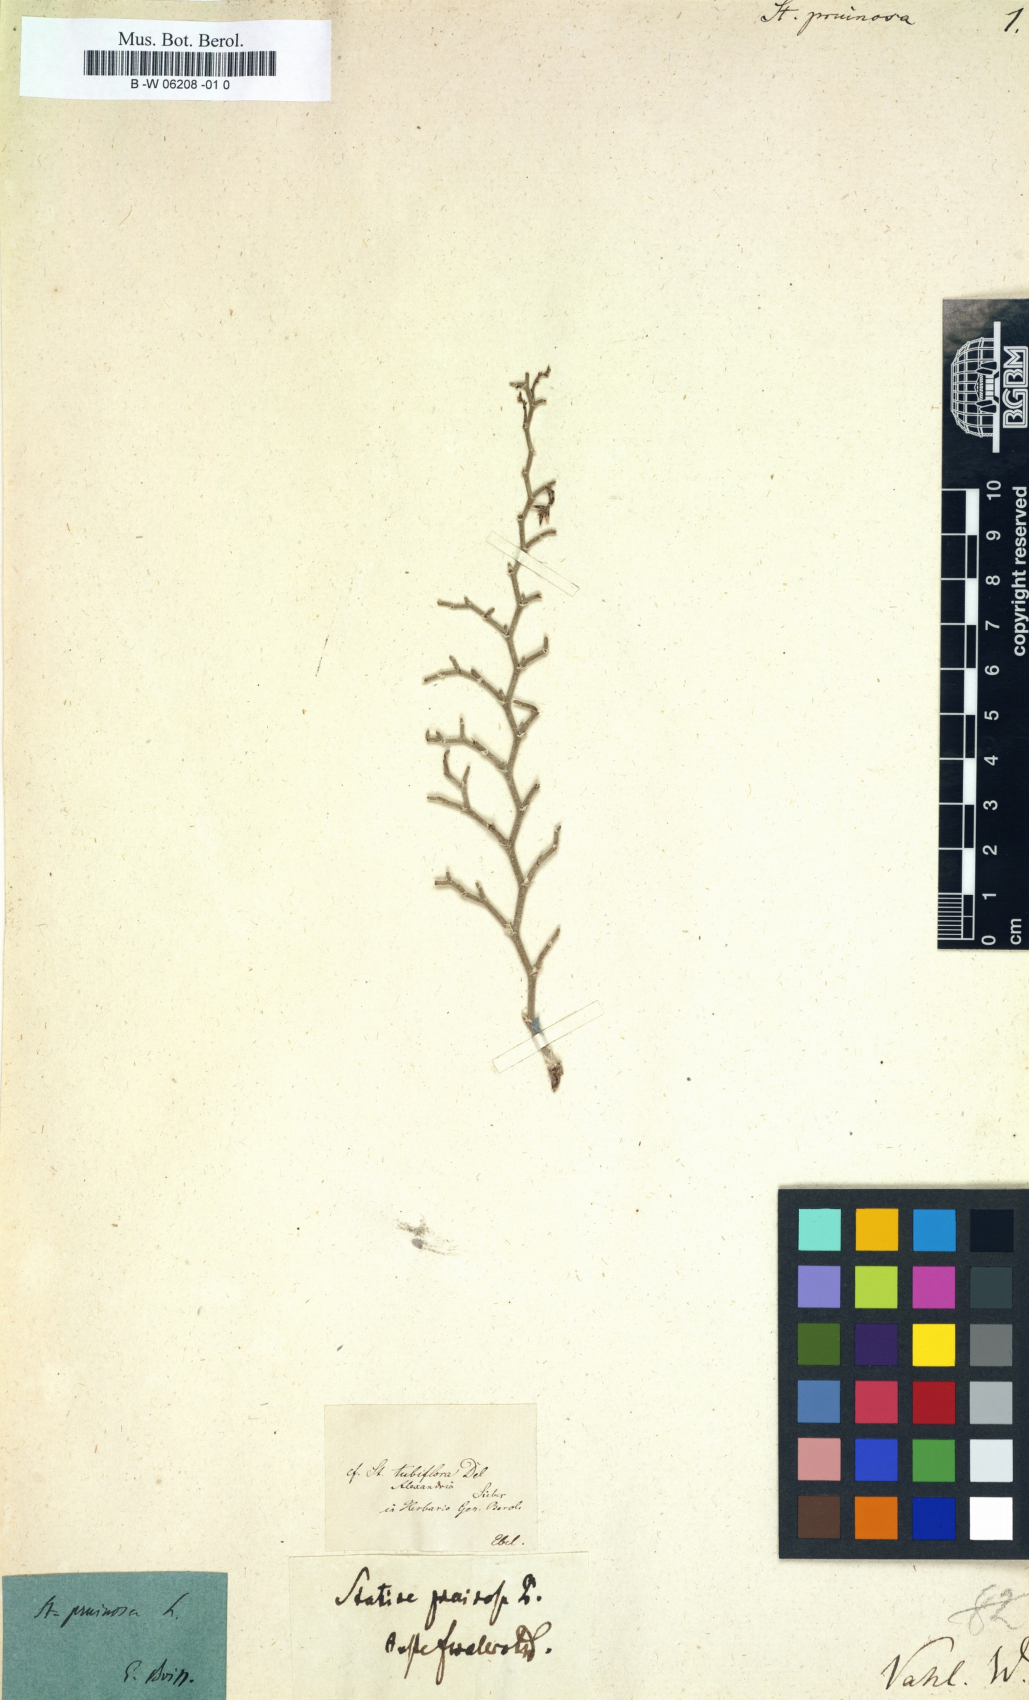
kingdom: Plantae
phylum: Tracheophyta
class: Magnoliopsida
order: Caryophyllales
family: Plumbaginaceae
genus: Limonium
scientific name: Limonium
